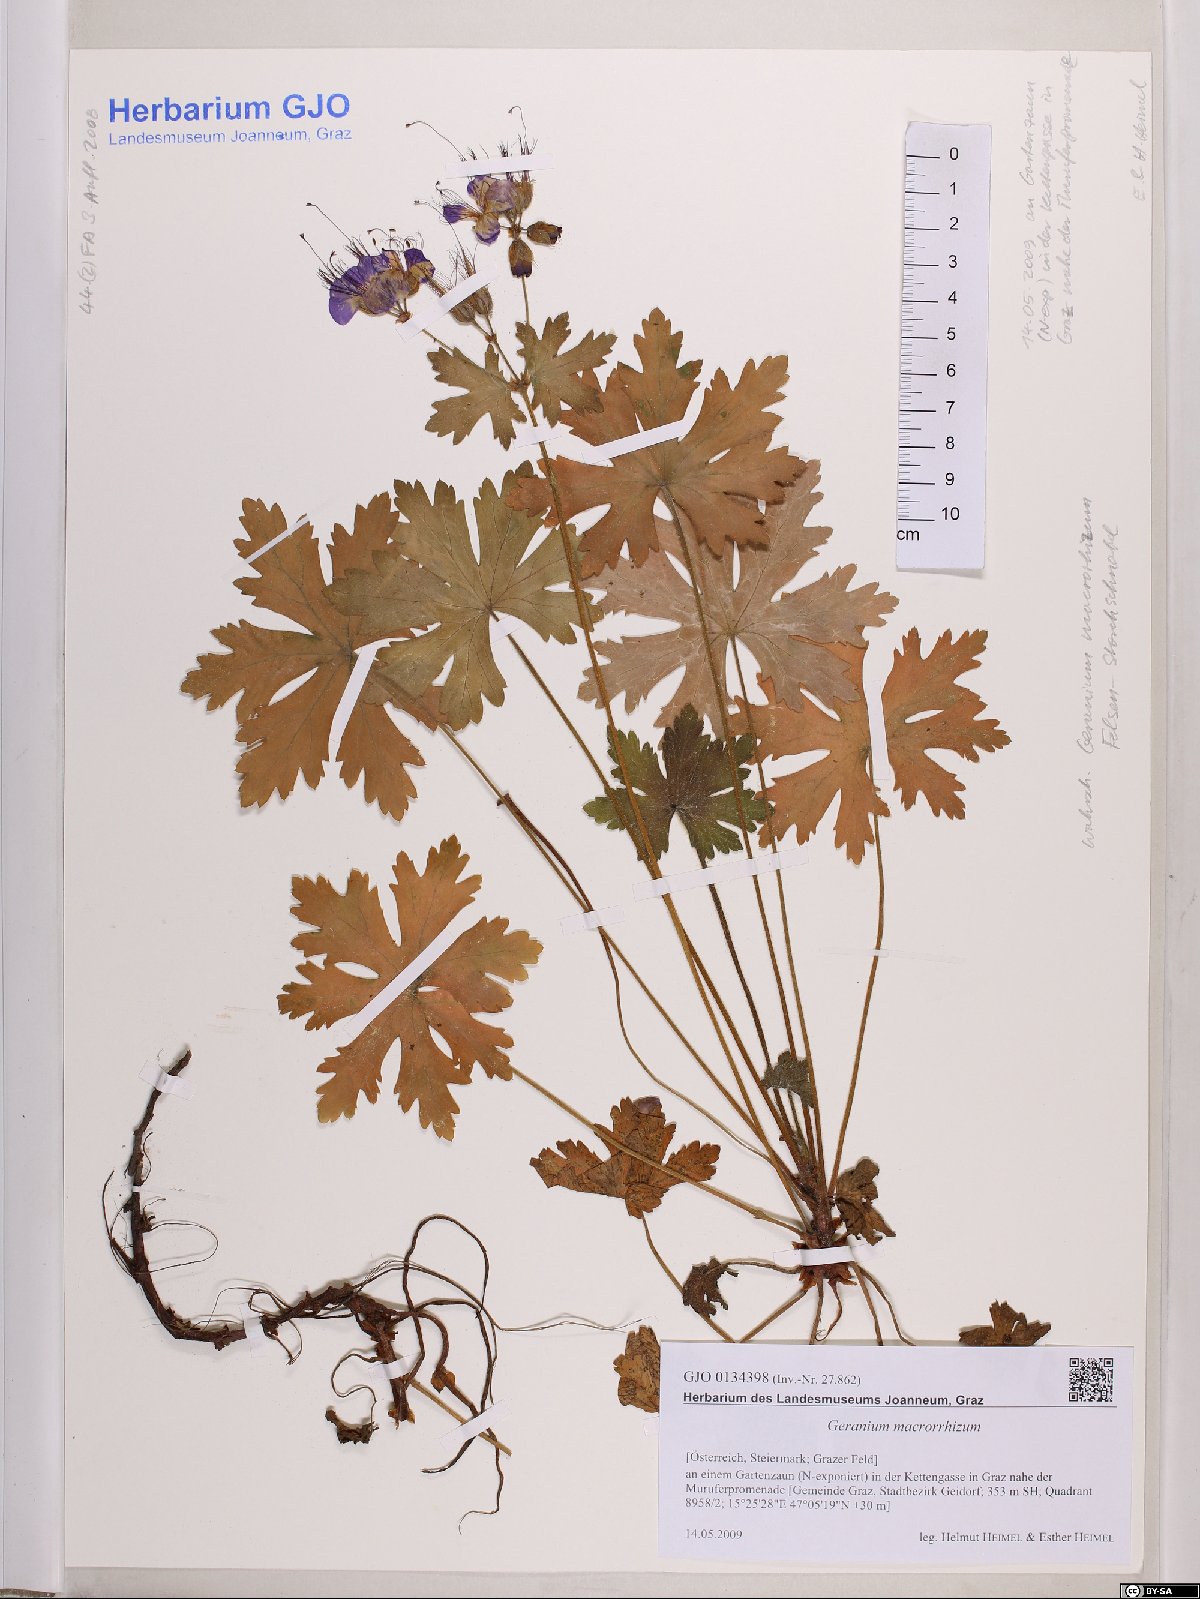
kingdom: Plantae
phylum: Tracheophyta
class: Magnoliopsida
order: Geraniales
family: Geraniaceae
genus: Geranium
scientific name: Geranium macrorrhizum
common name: Rock crane's-bill
